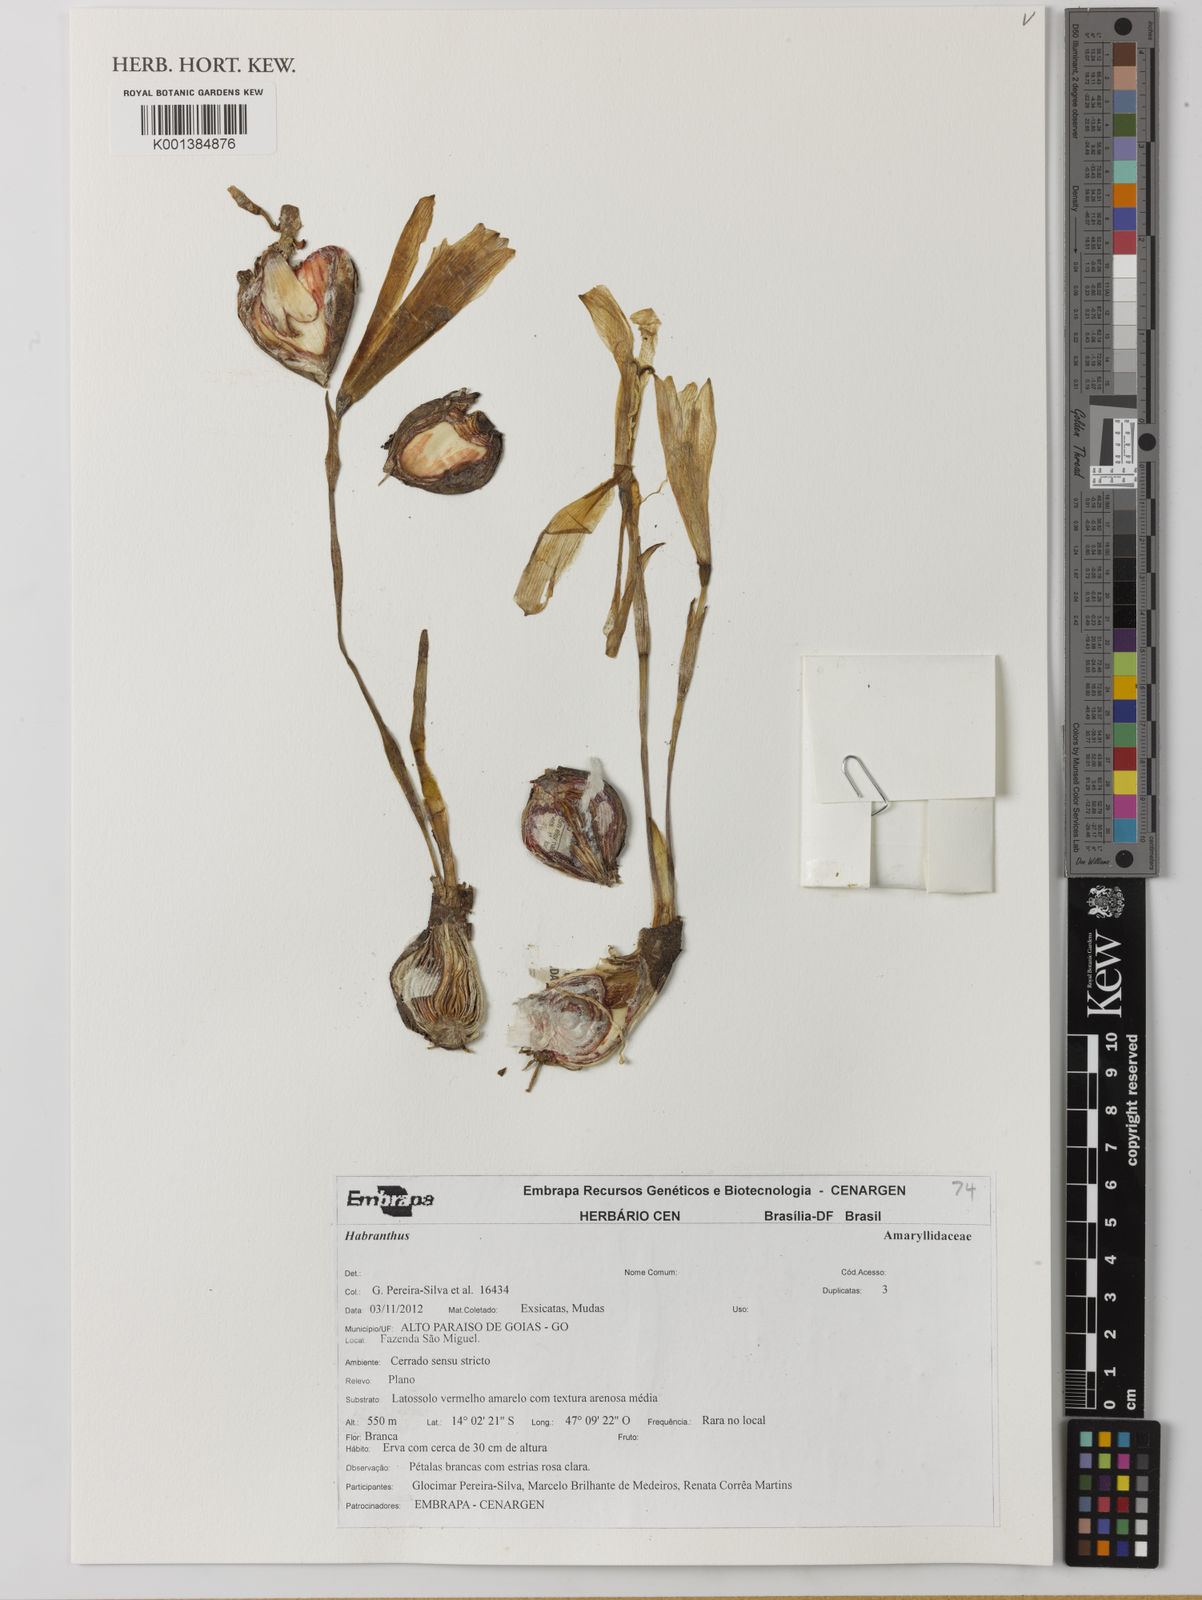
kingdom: Plantae
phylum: Tracheophyta
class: Liliopsida
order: Asparagales
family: Amaryllidaceae
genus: Zephyranthes
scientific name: Zephyranthes
